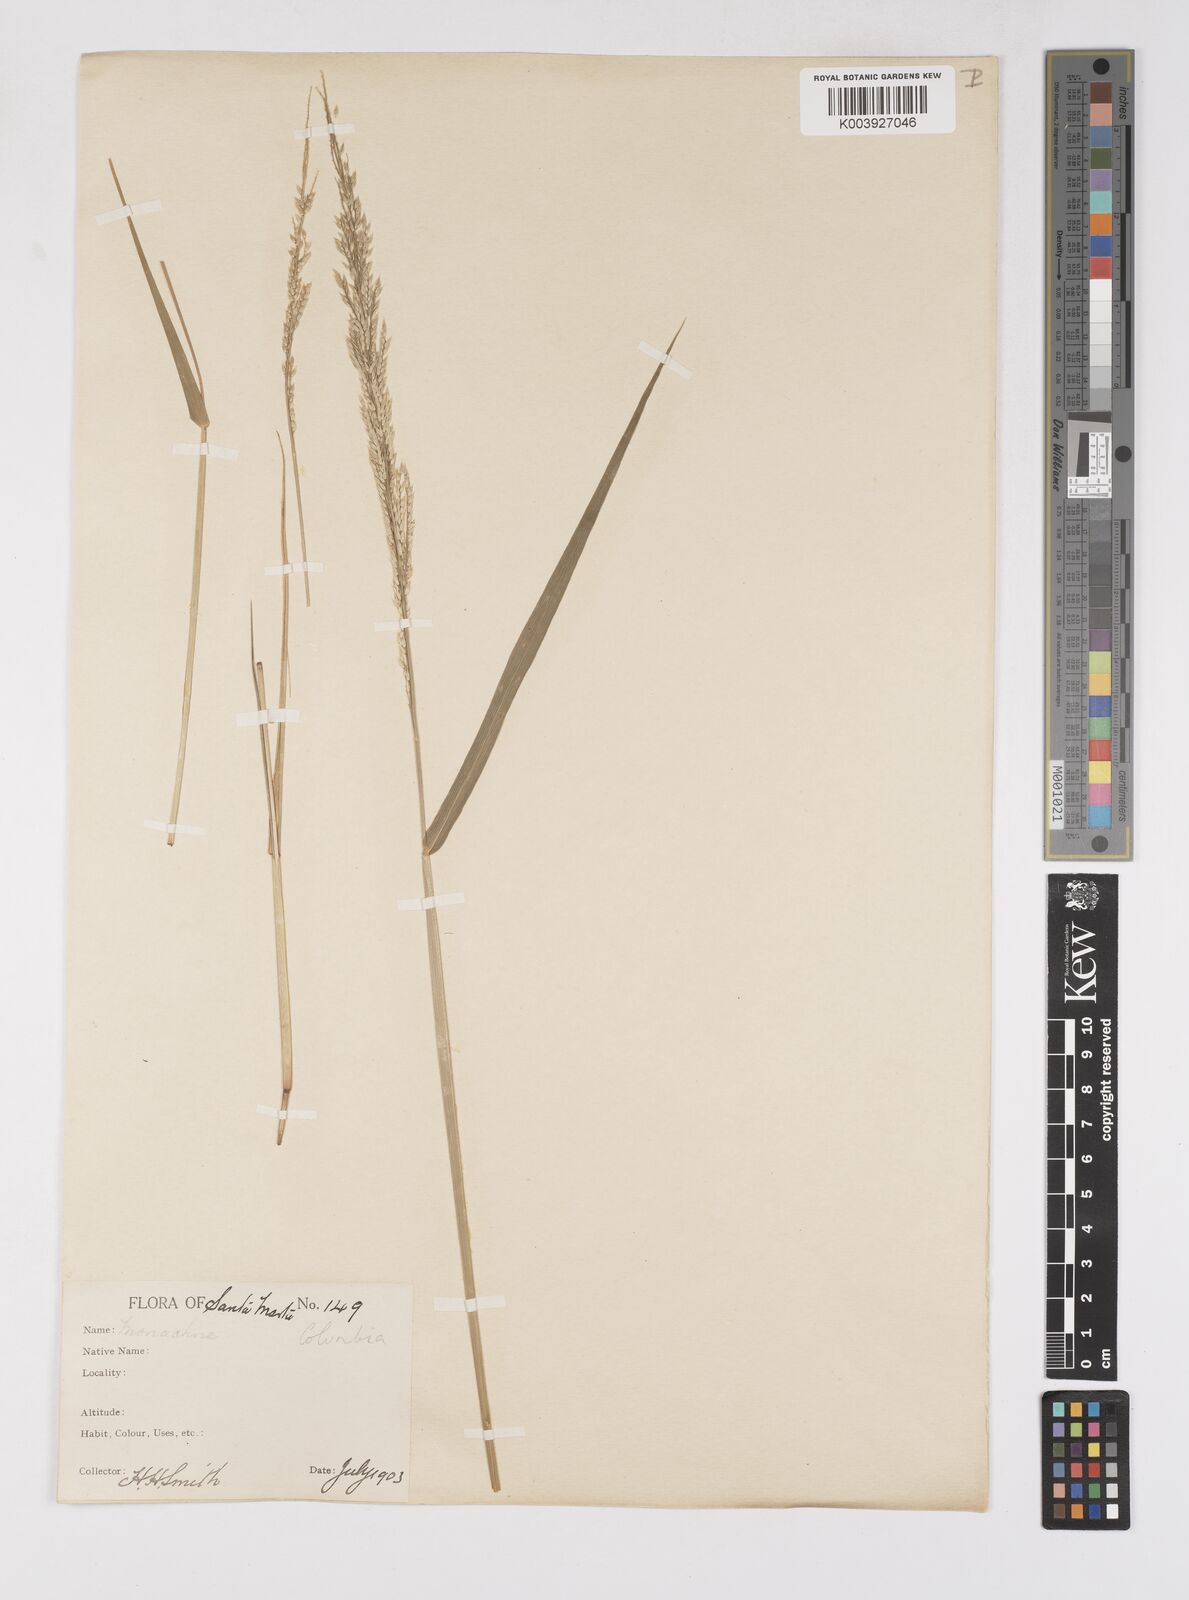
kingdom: Plantae
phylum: Tracheophyta
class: Liliopsida
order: Poales
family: Poaceae
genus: Eriochloa
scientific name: Eriochloa punctata
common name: Louisiana cupgrass
